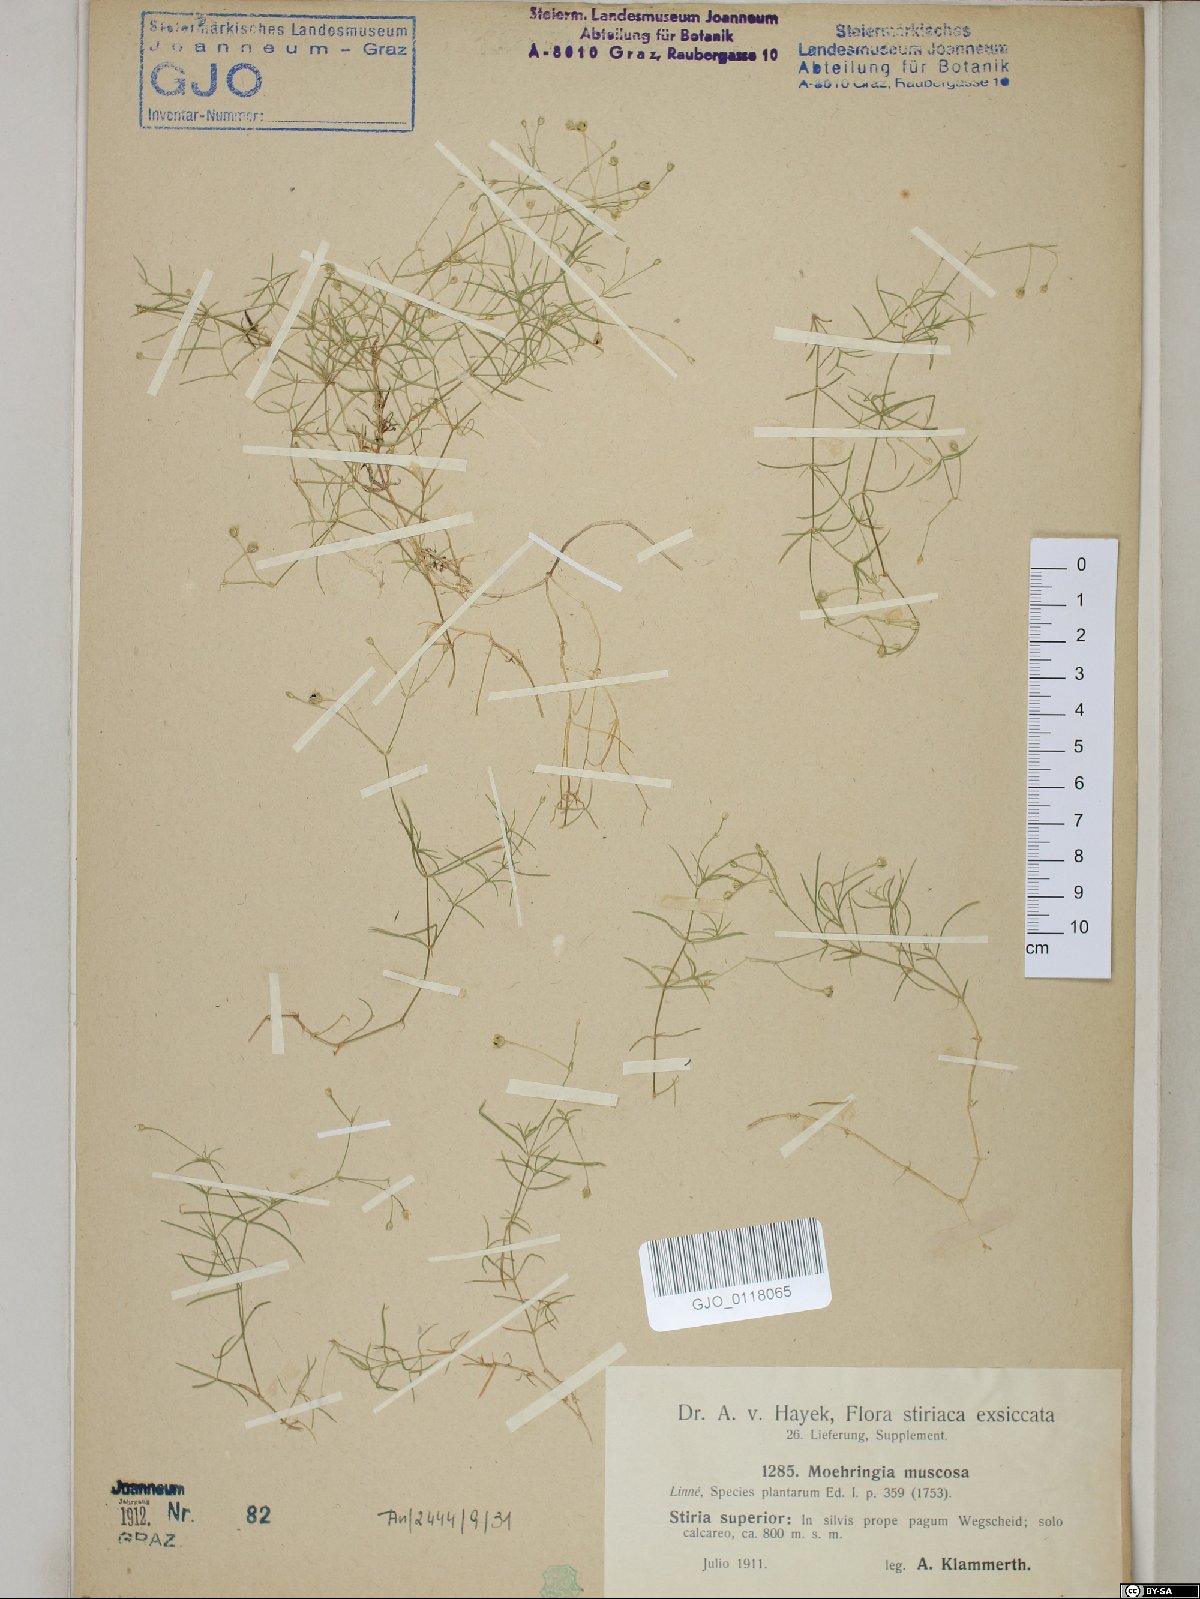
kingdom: Plantae
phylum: Tracheophyta
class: Magnoliopsida
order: Caryophyllales
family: Caryophyllaceae
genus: Moehringia
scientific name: Moehringia muscosa
